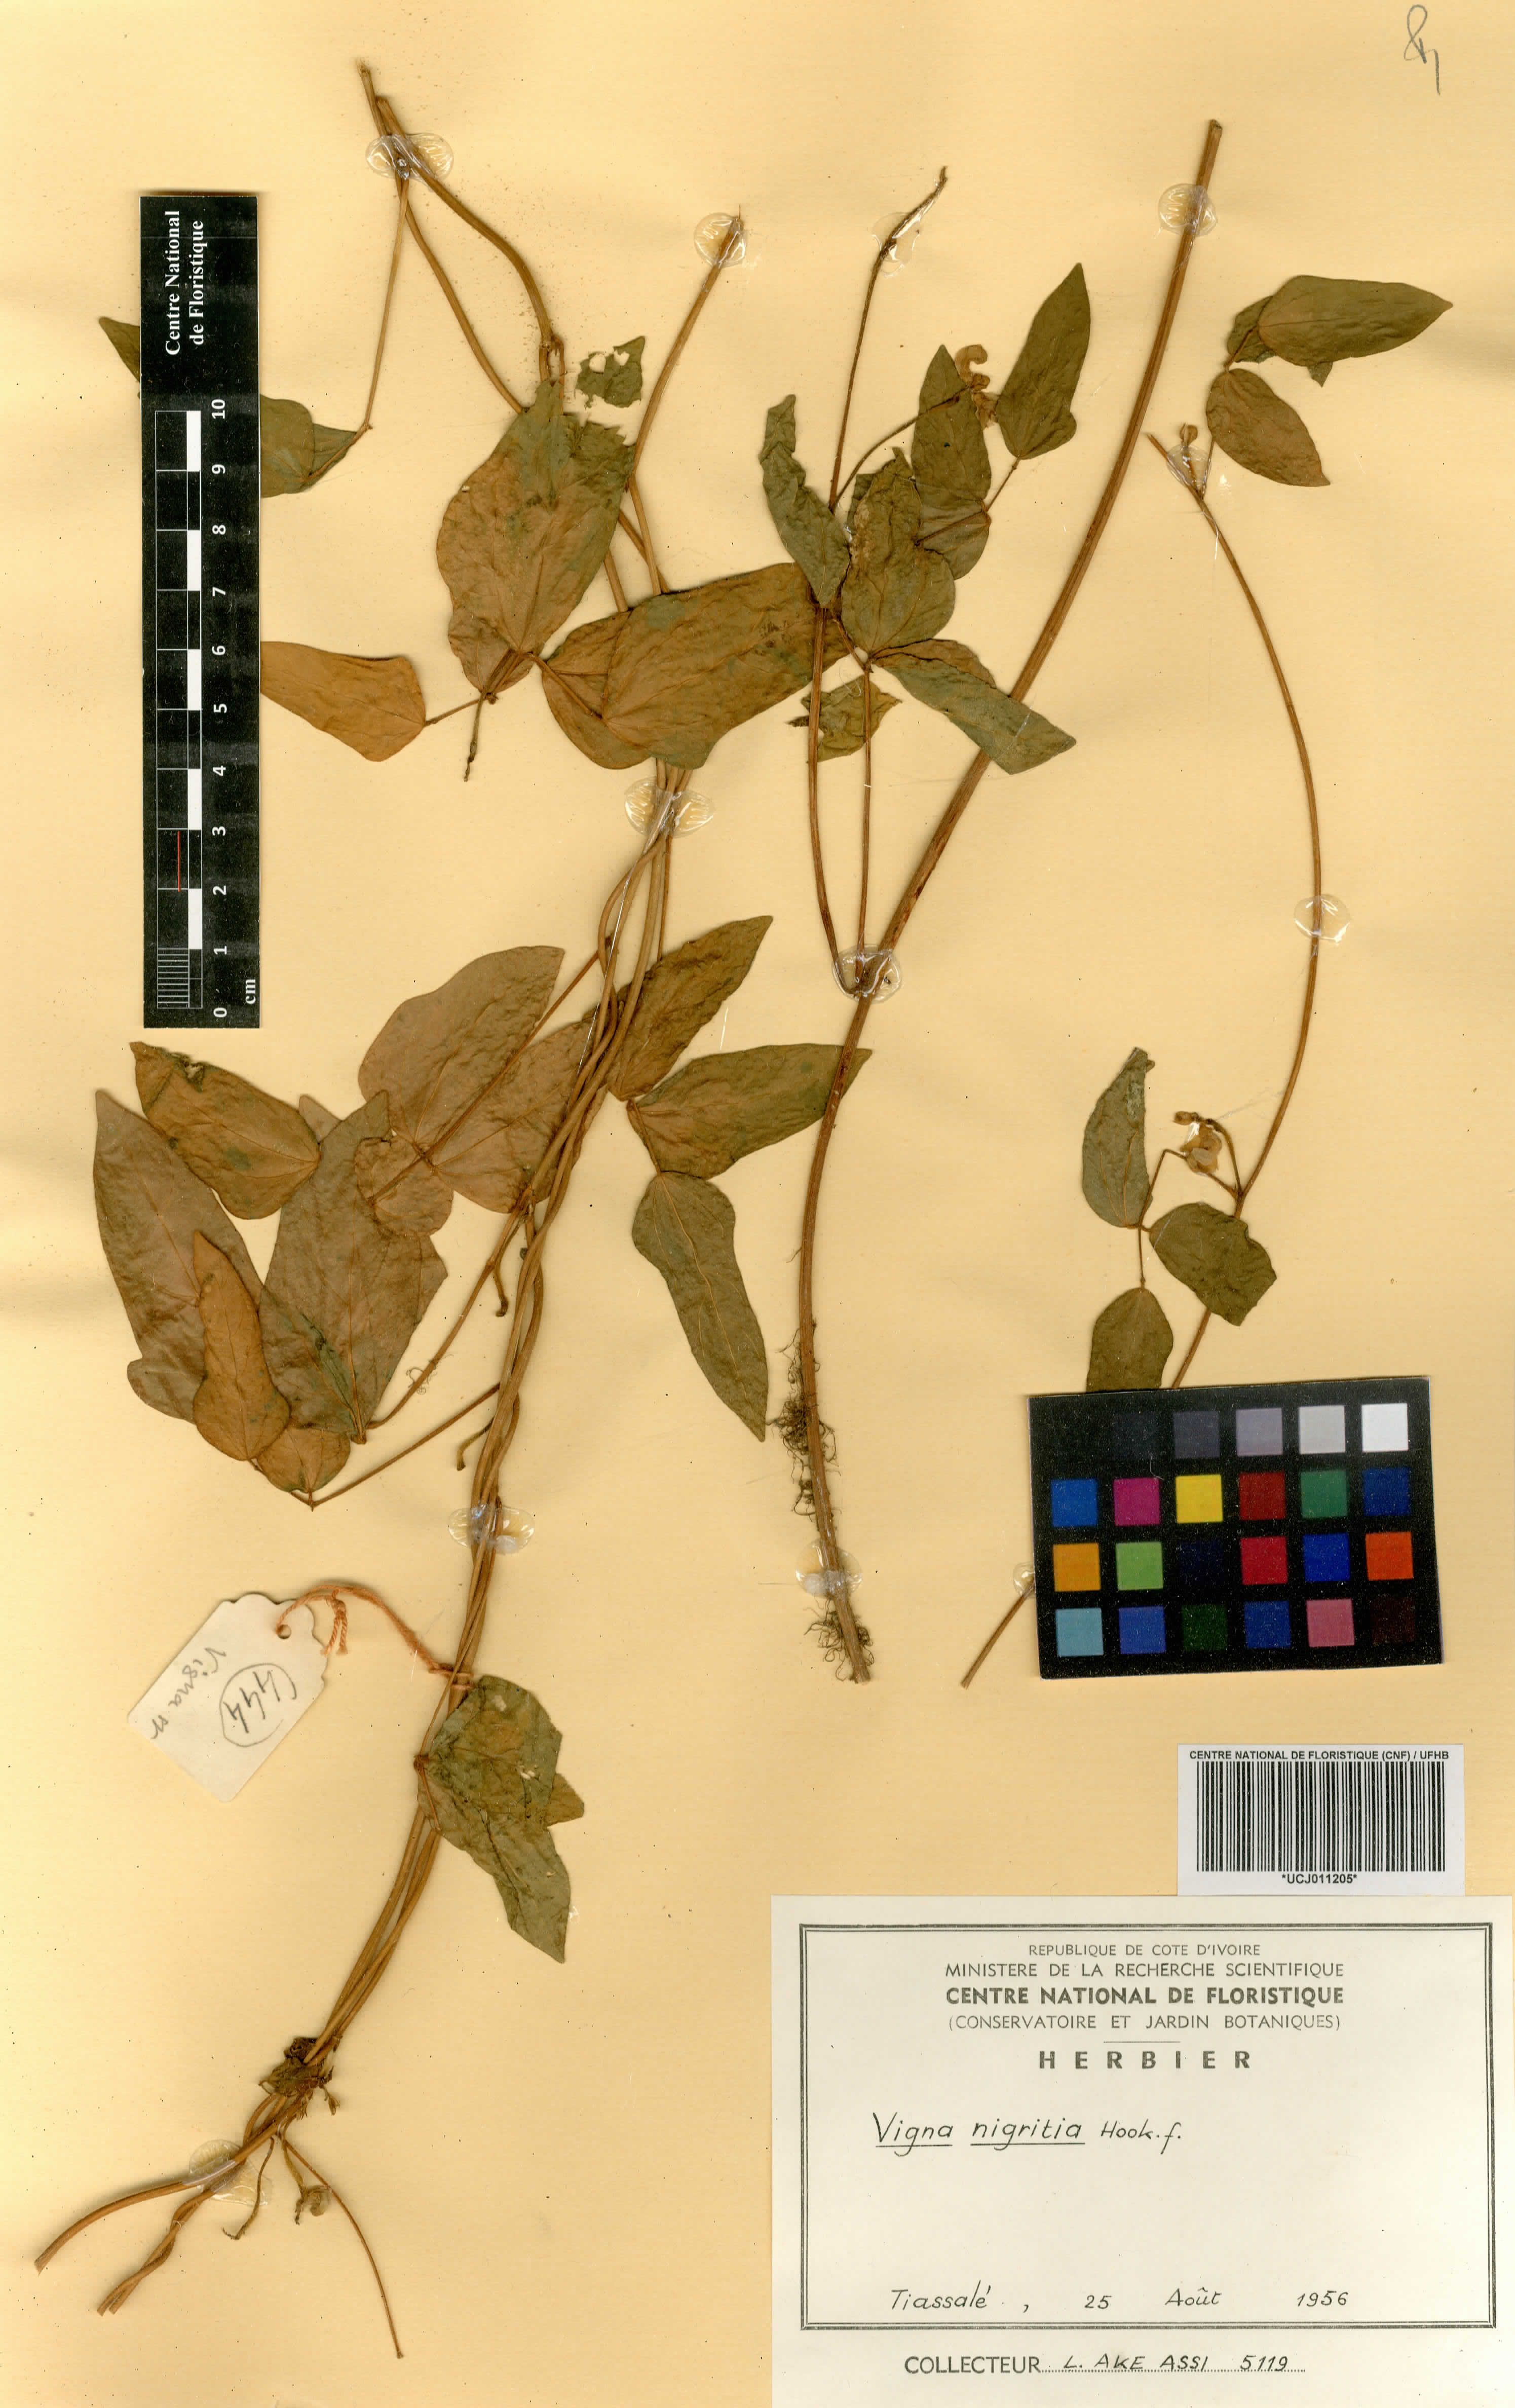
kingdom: Plantae
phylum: Tracheophyta
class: Magnoliopsida
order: Fabales
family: Fabaceae
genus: Vigna
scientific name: Vigna nigritia
